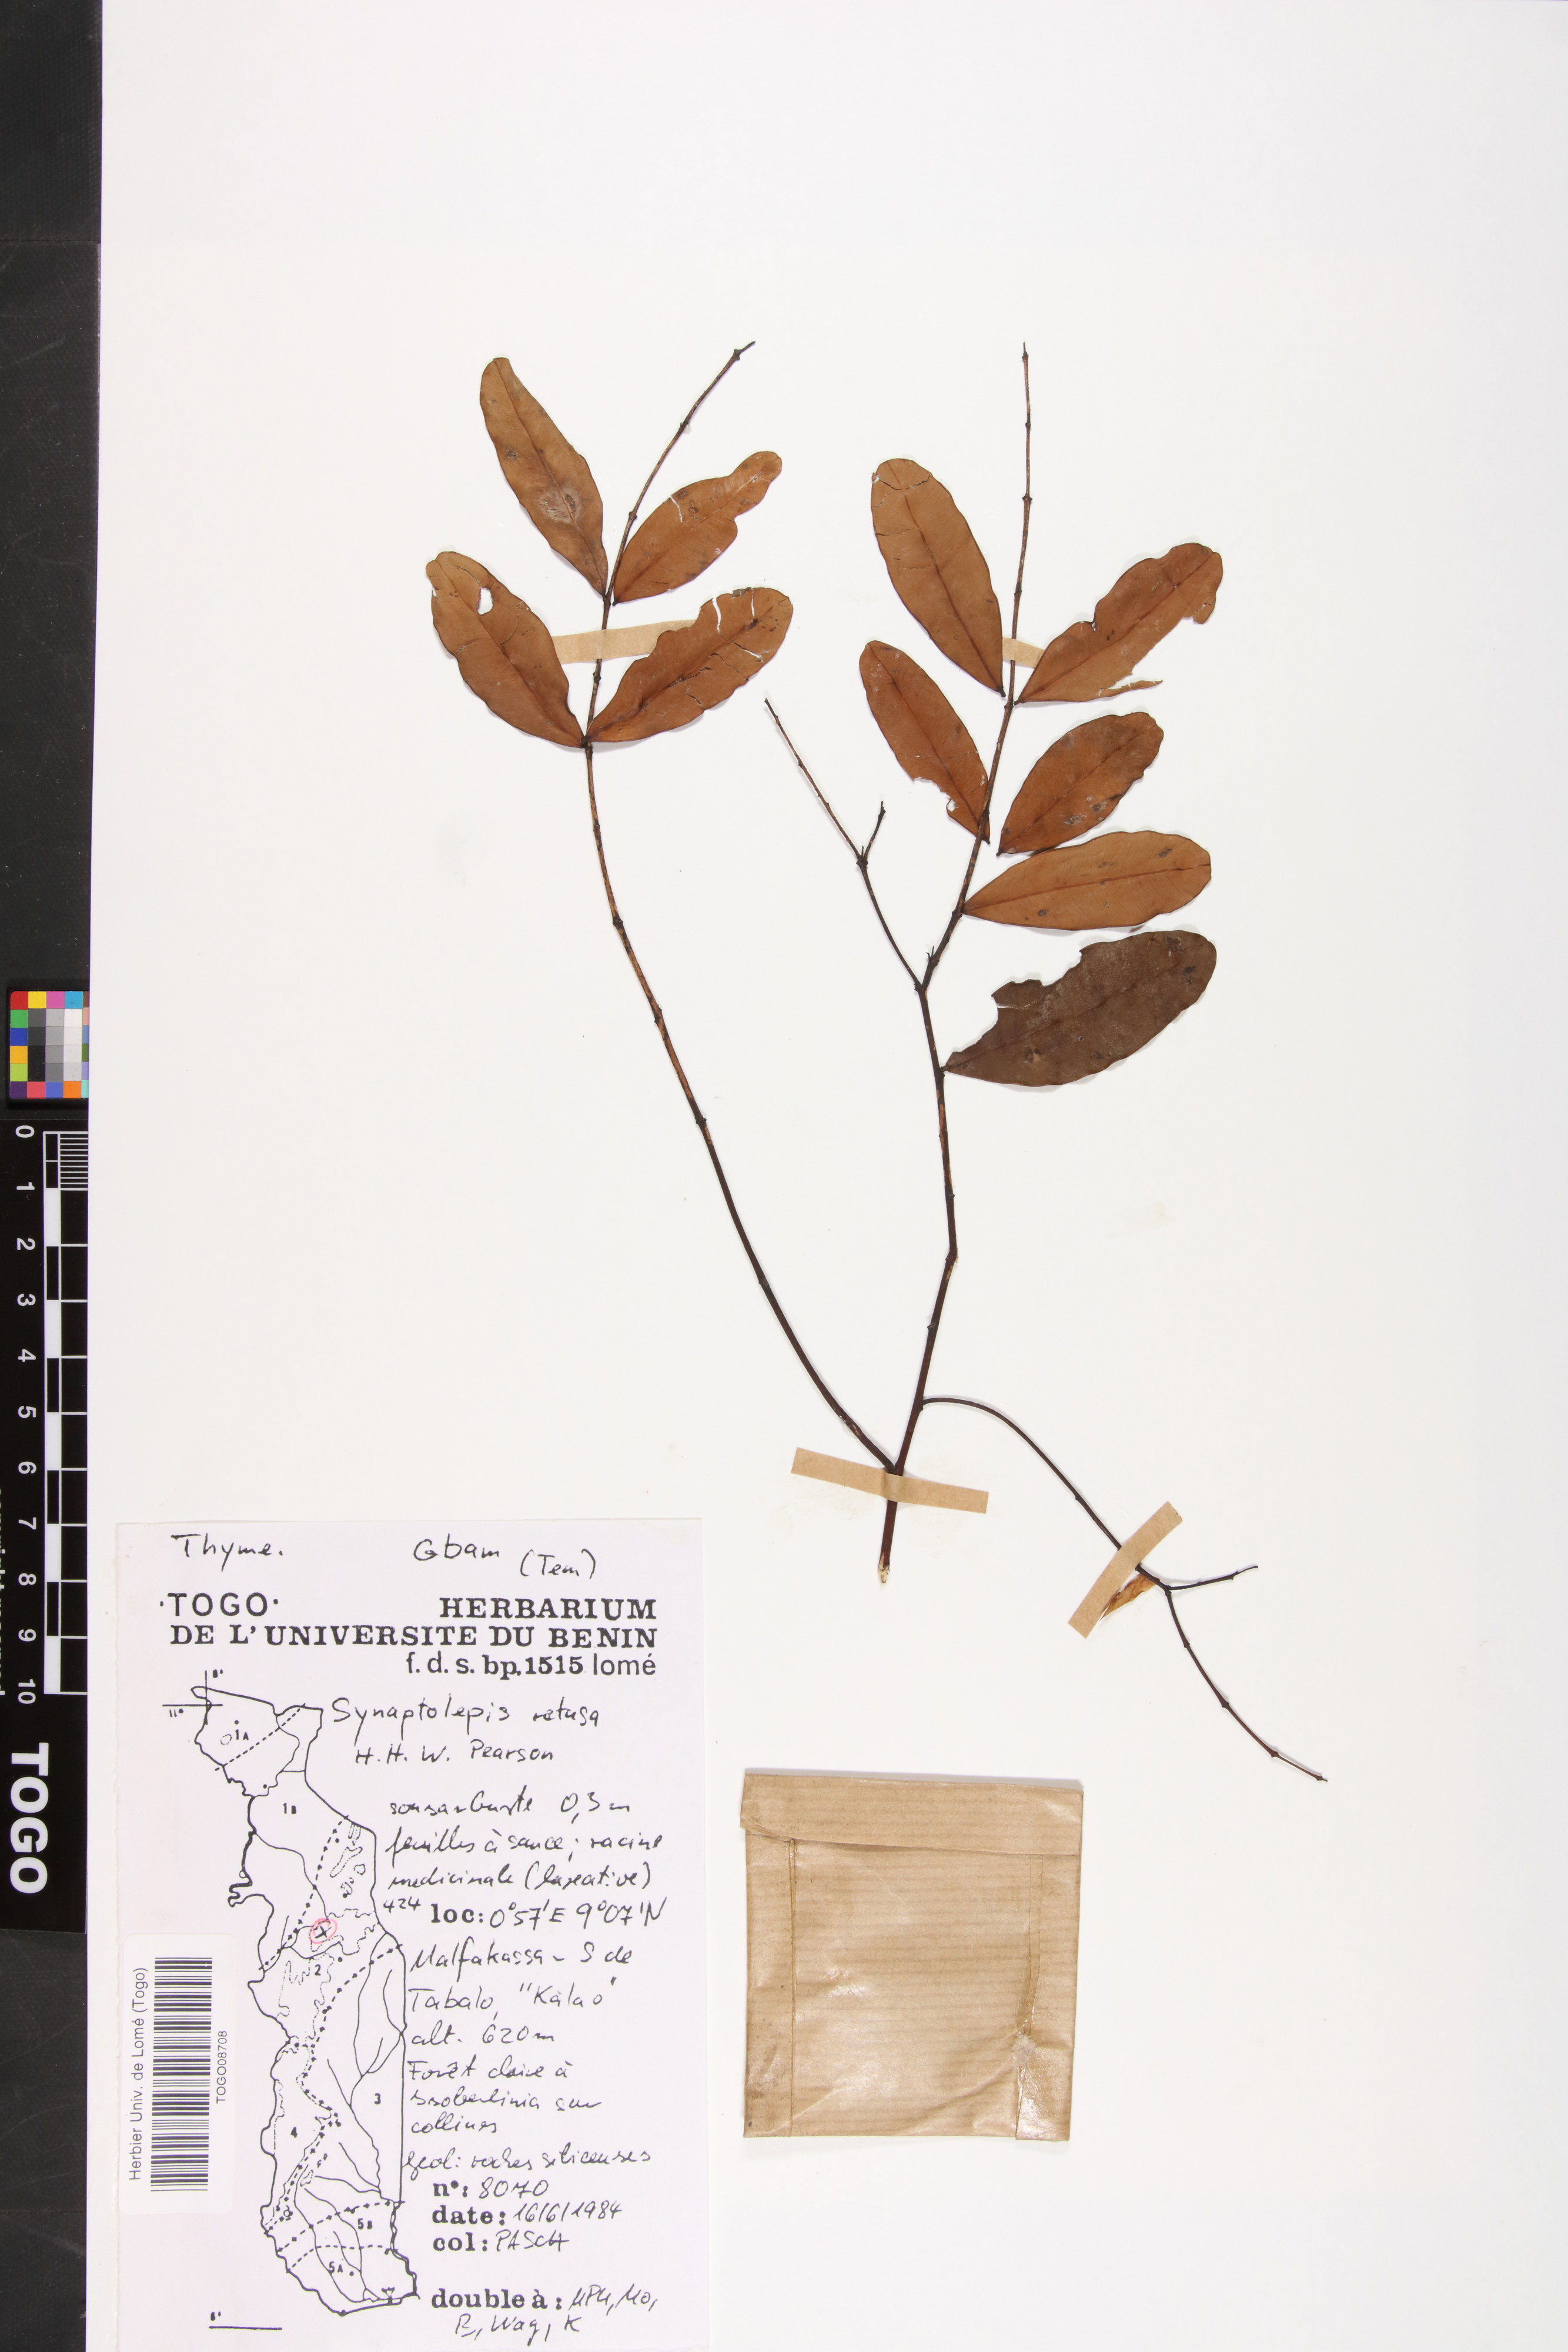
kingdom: Plantae
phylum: Tracheophyta
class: Magnoliopsida
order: Malvales
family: Thymelaeaceae
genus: Synaptolepis
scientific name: Synaptolepis retusa
